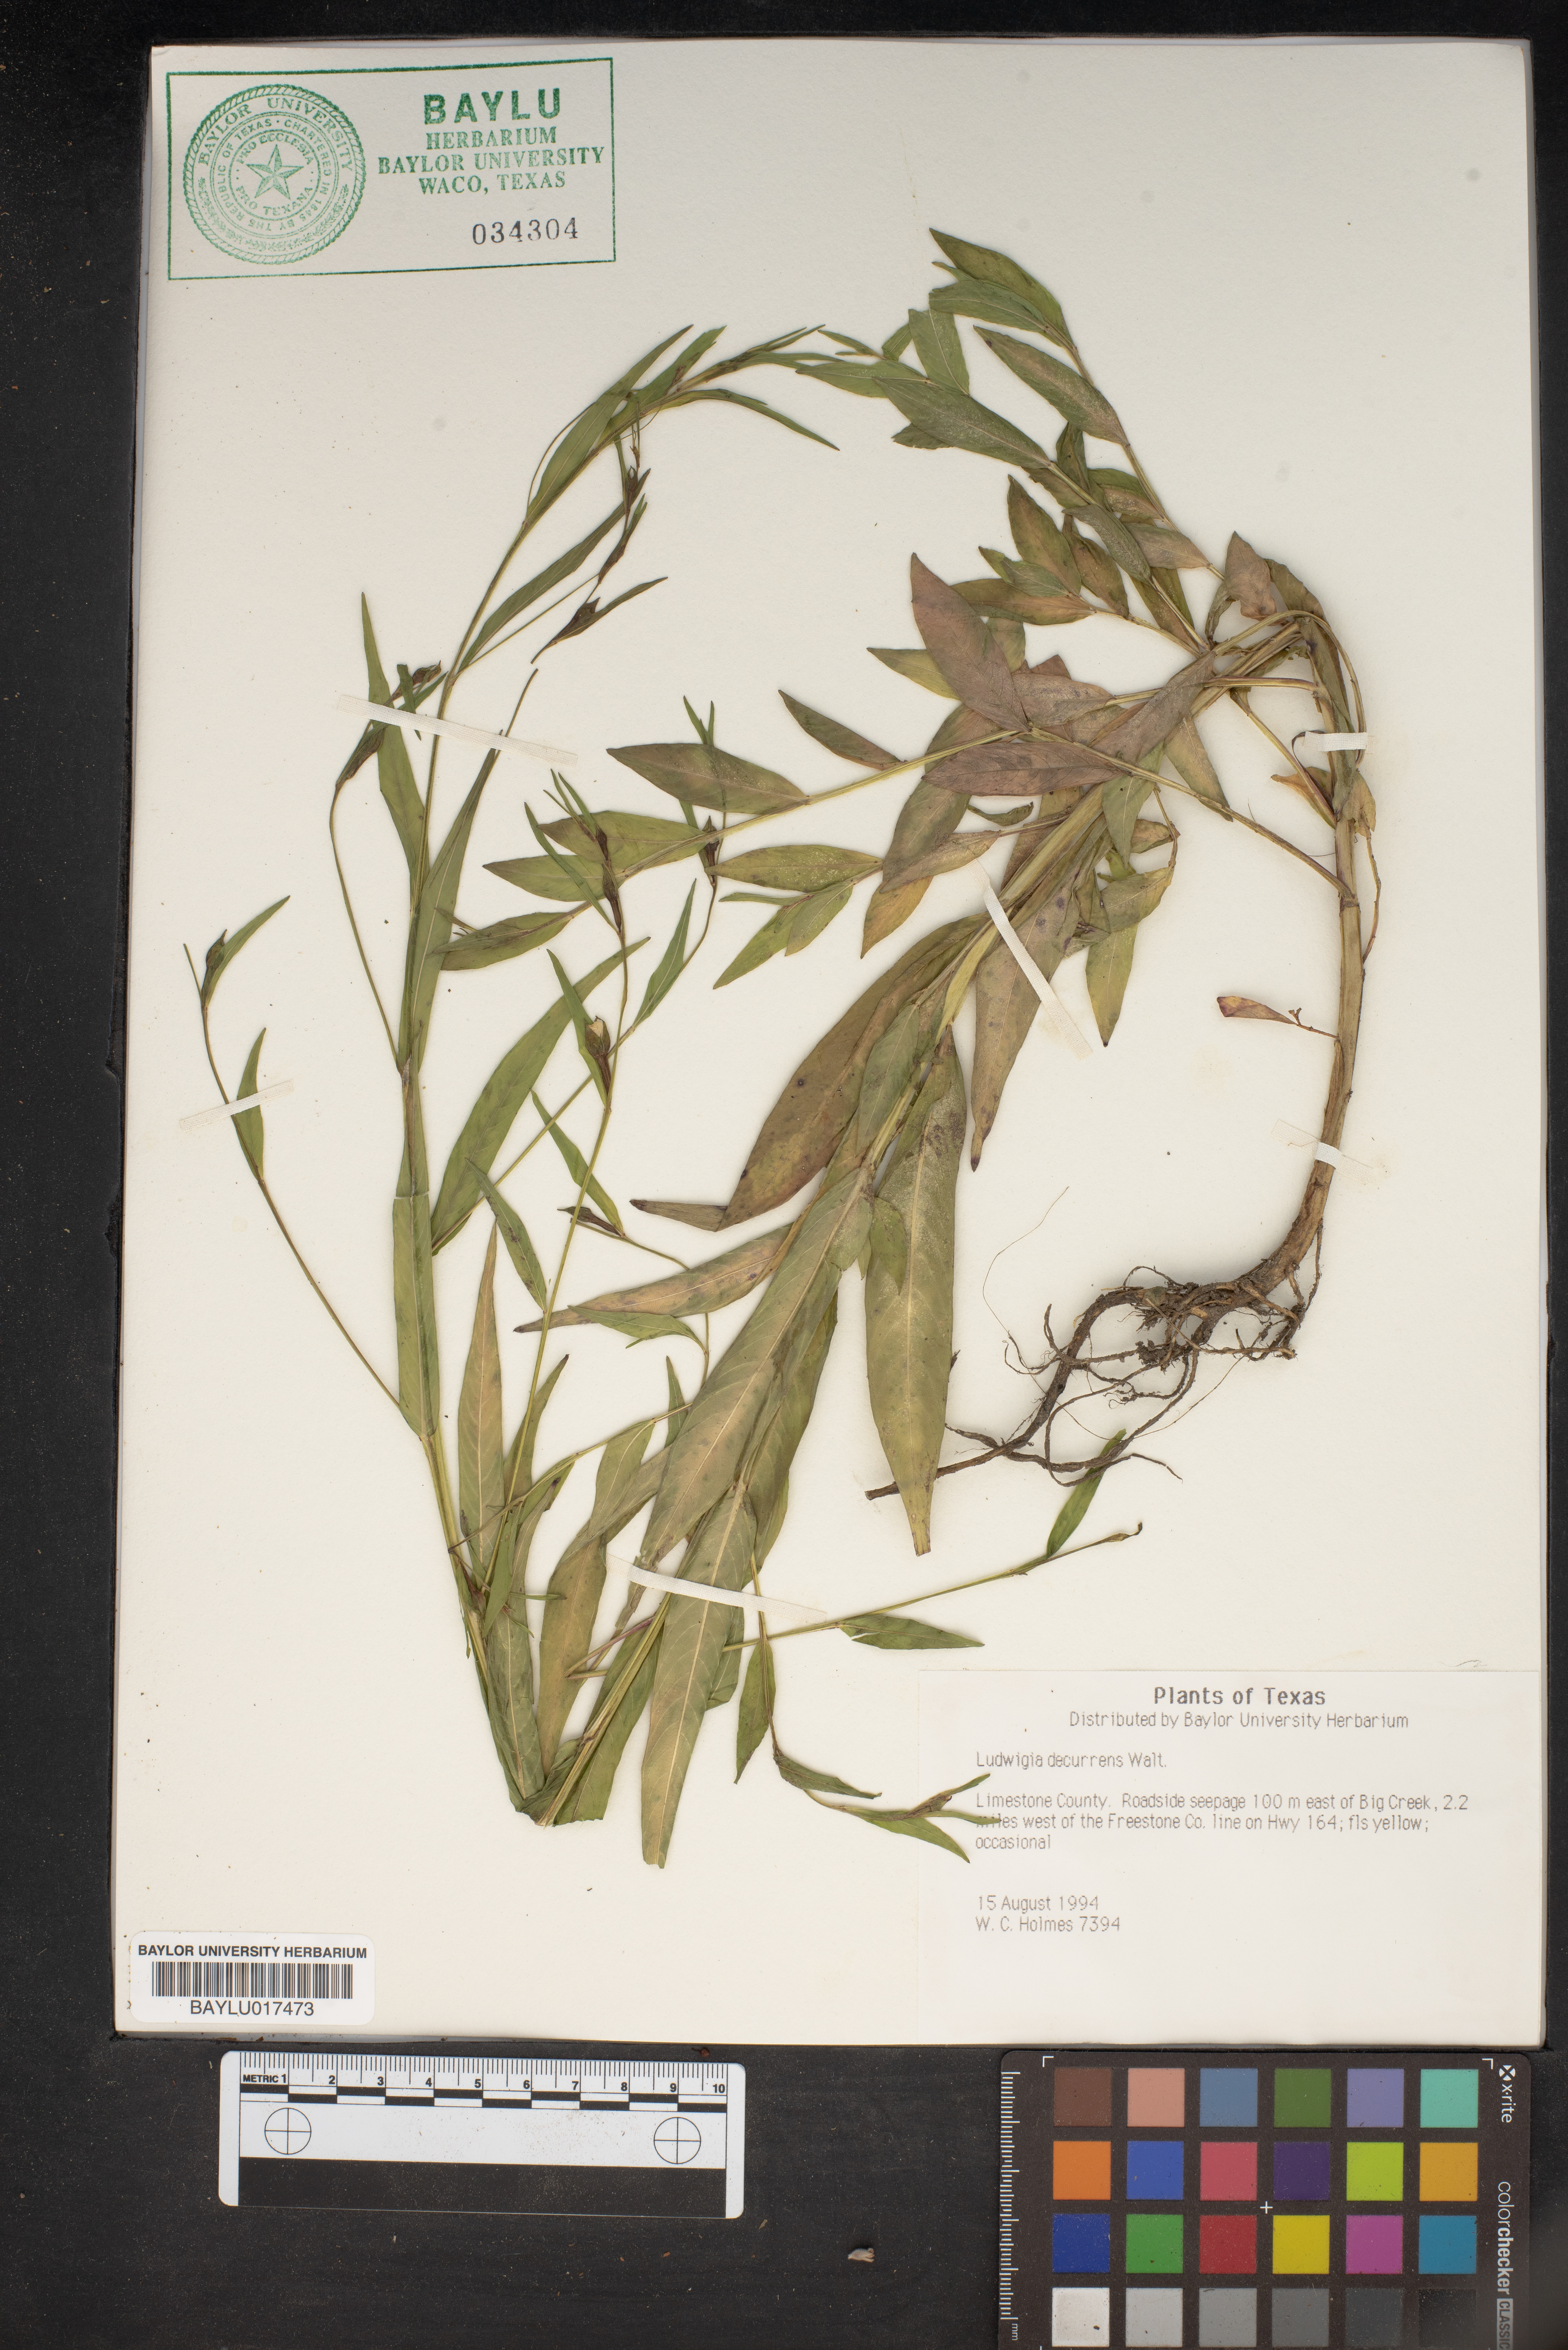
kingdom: Plantae
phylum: Tracheophyta
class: Magnoliopsida
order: Myrtales
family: Onagraceae
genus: Ludwigia
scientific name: Ludwigia decurrens
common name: Winged water-primrose
